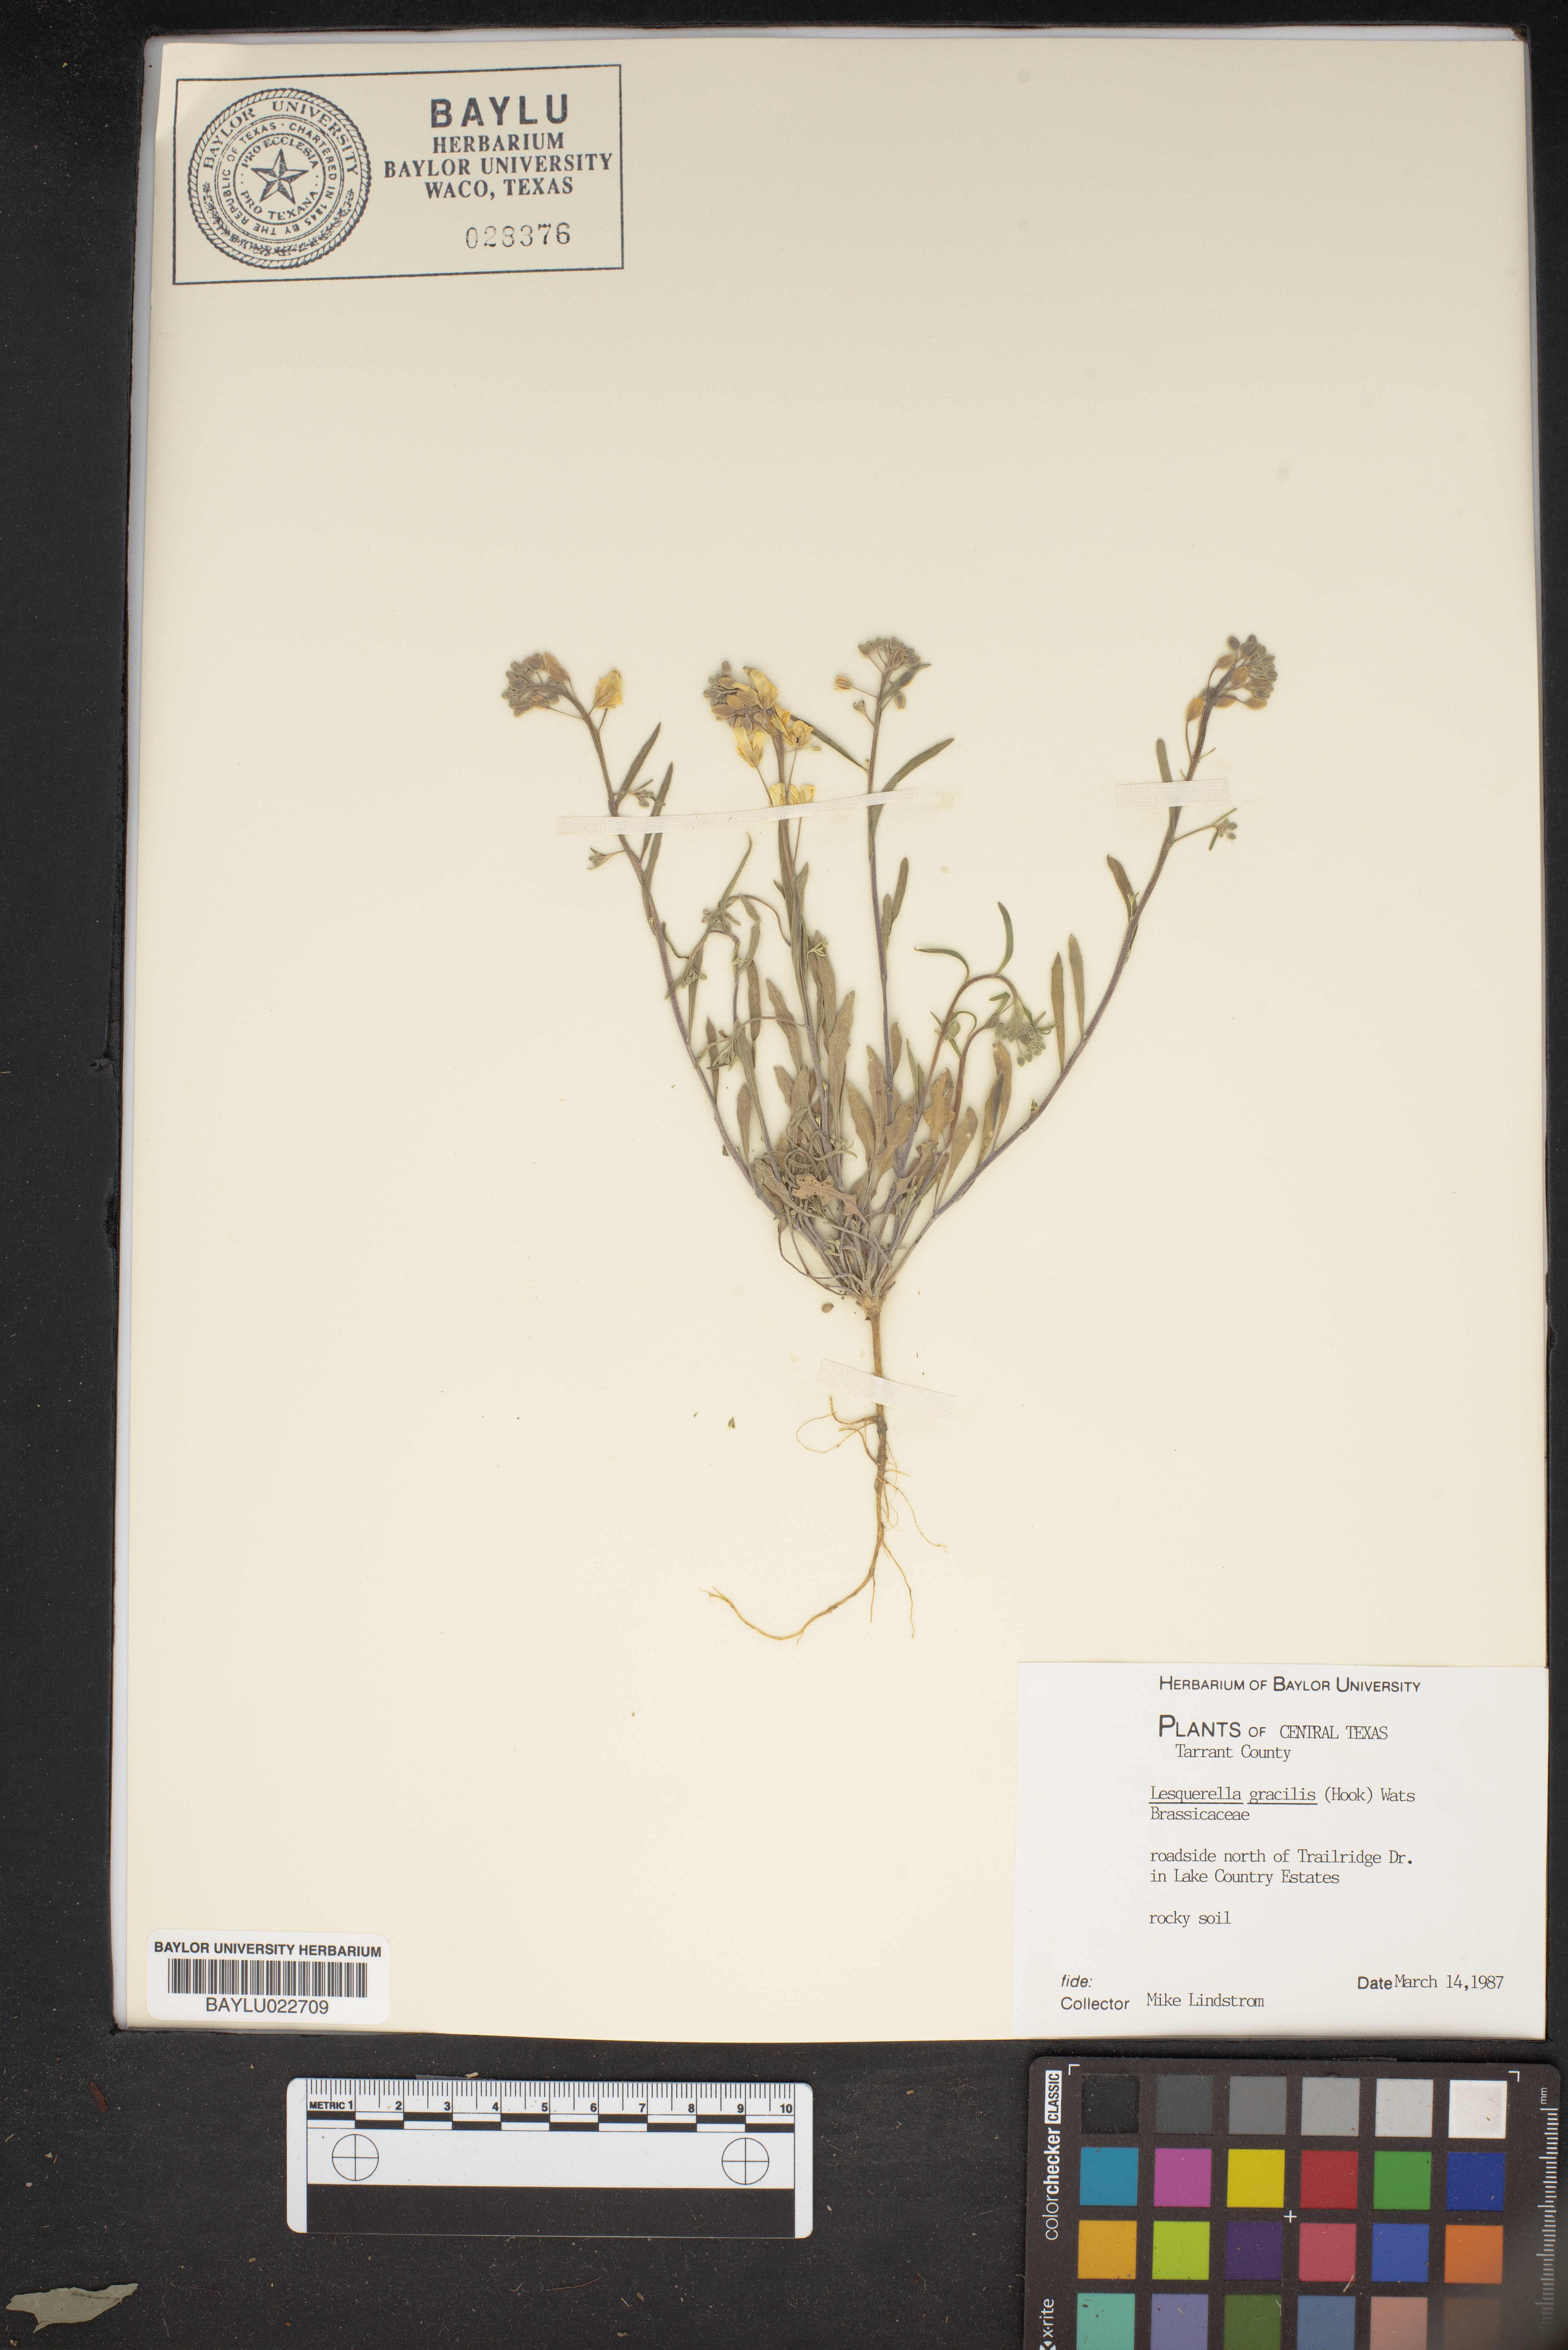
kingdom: Plantae
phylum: Tracheophyta
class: Magnoliopsida
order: Brassicales
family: Brassicaceae
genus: Physaria
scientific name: Physaria gracilis
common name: Spreading bladderpod
